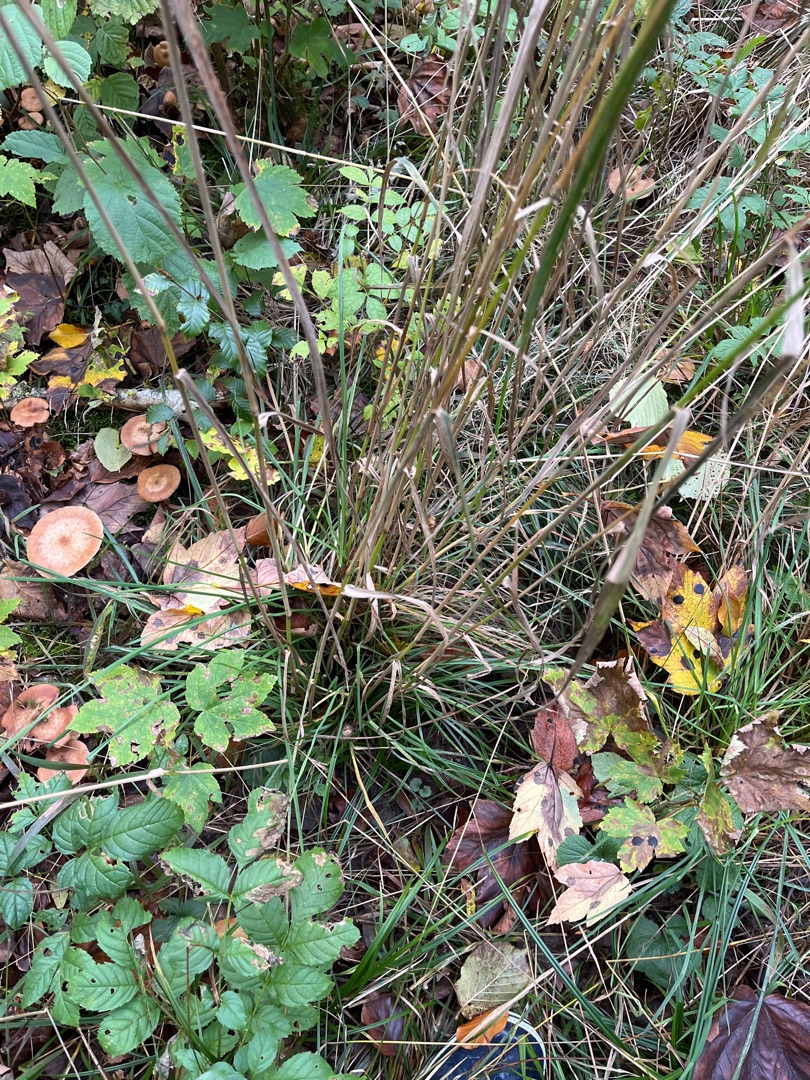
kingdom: Plantae
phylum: Tracheophyta
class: Liliopsida
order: Poales
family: Poaceae
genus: Dactylis
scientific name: Dactylis glomerata
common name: Almindelig hundegræs
